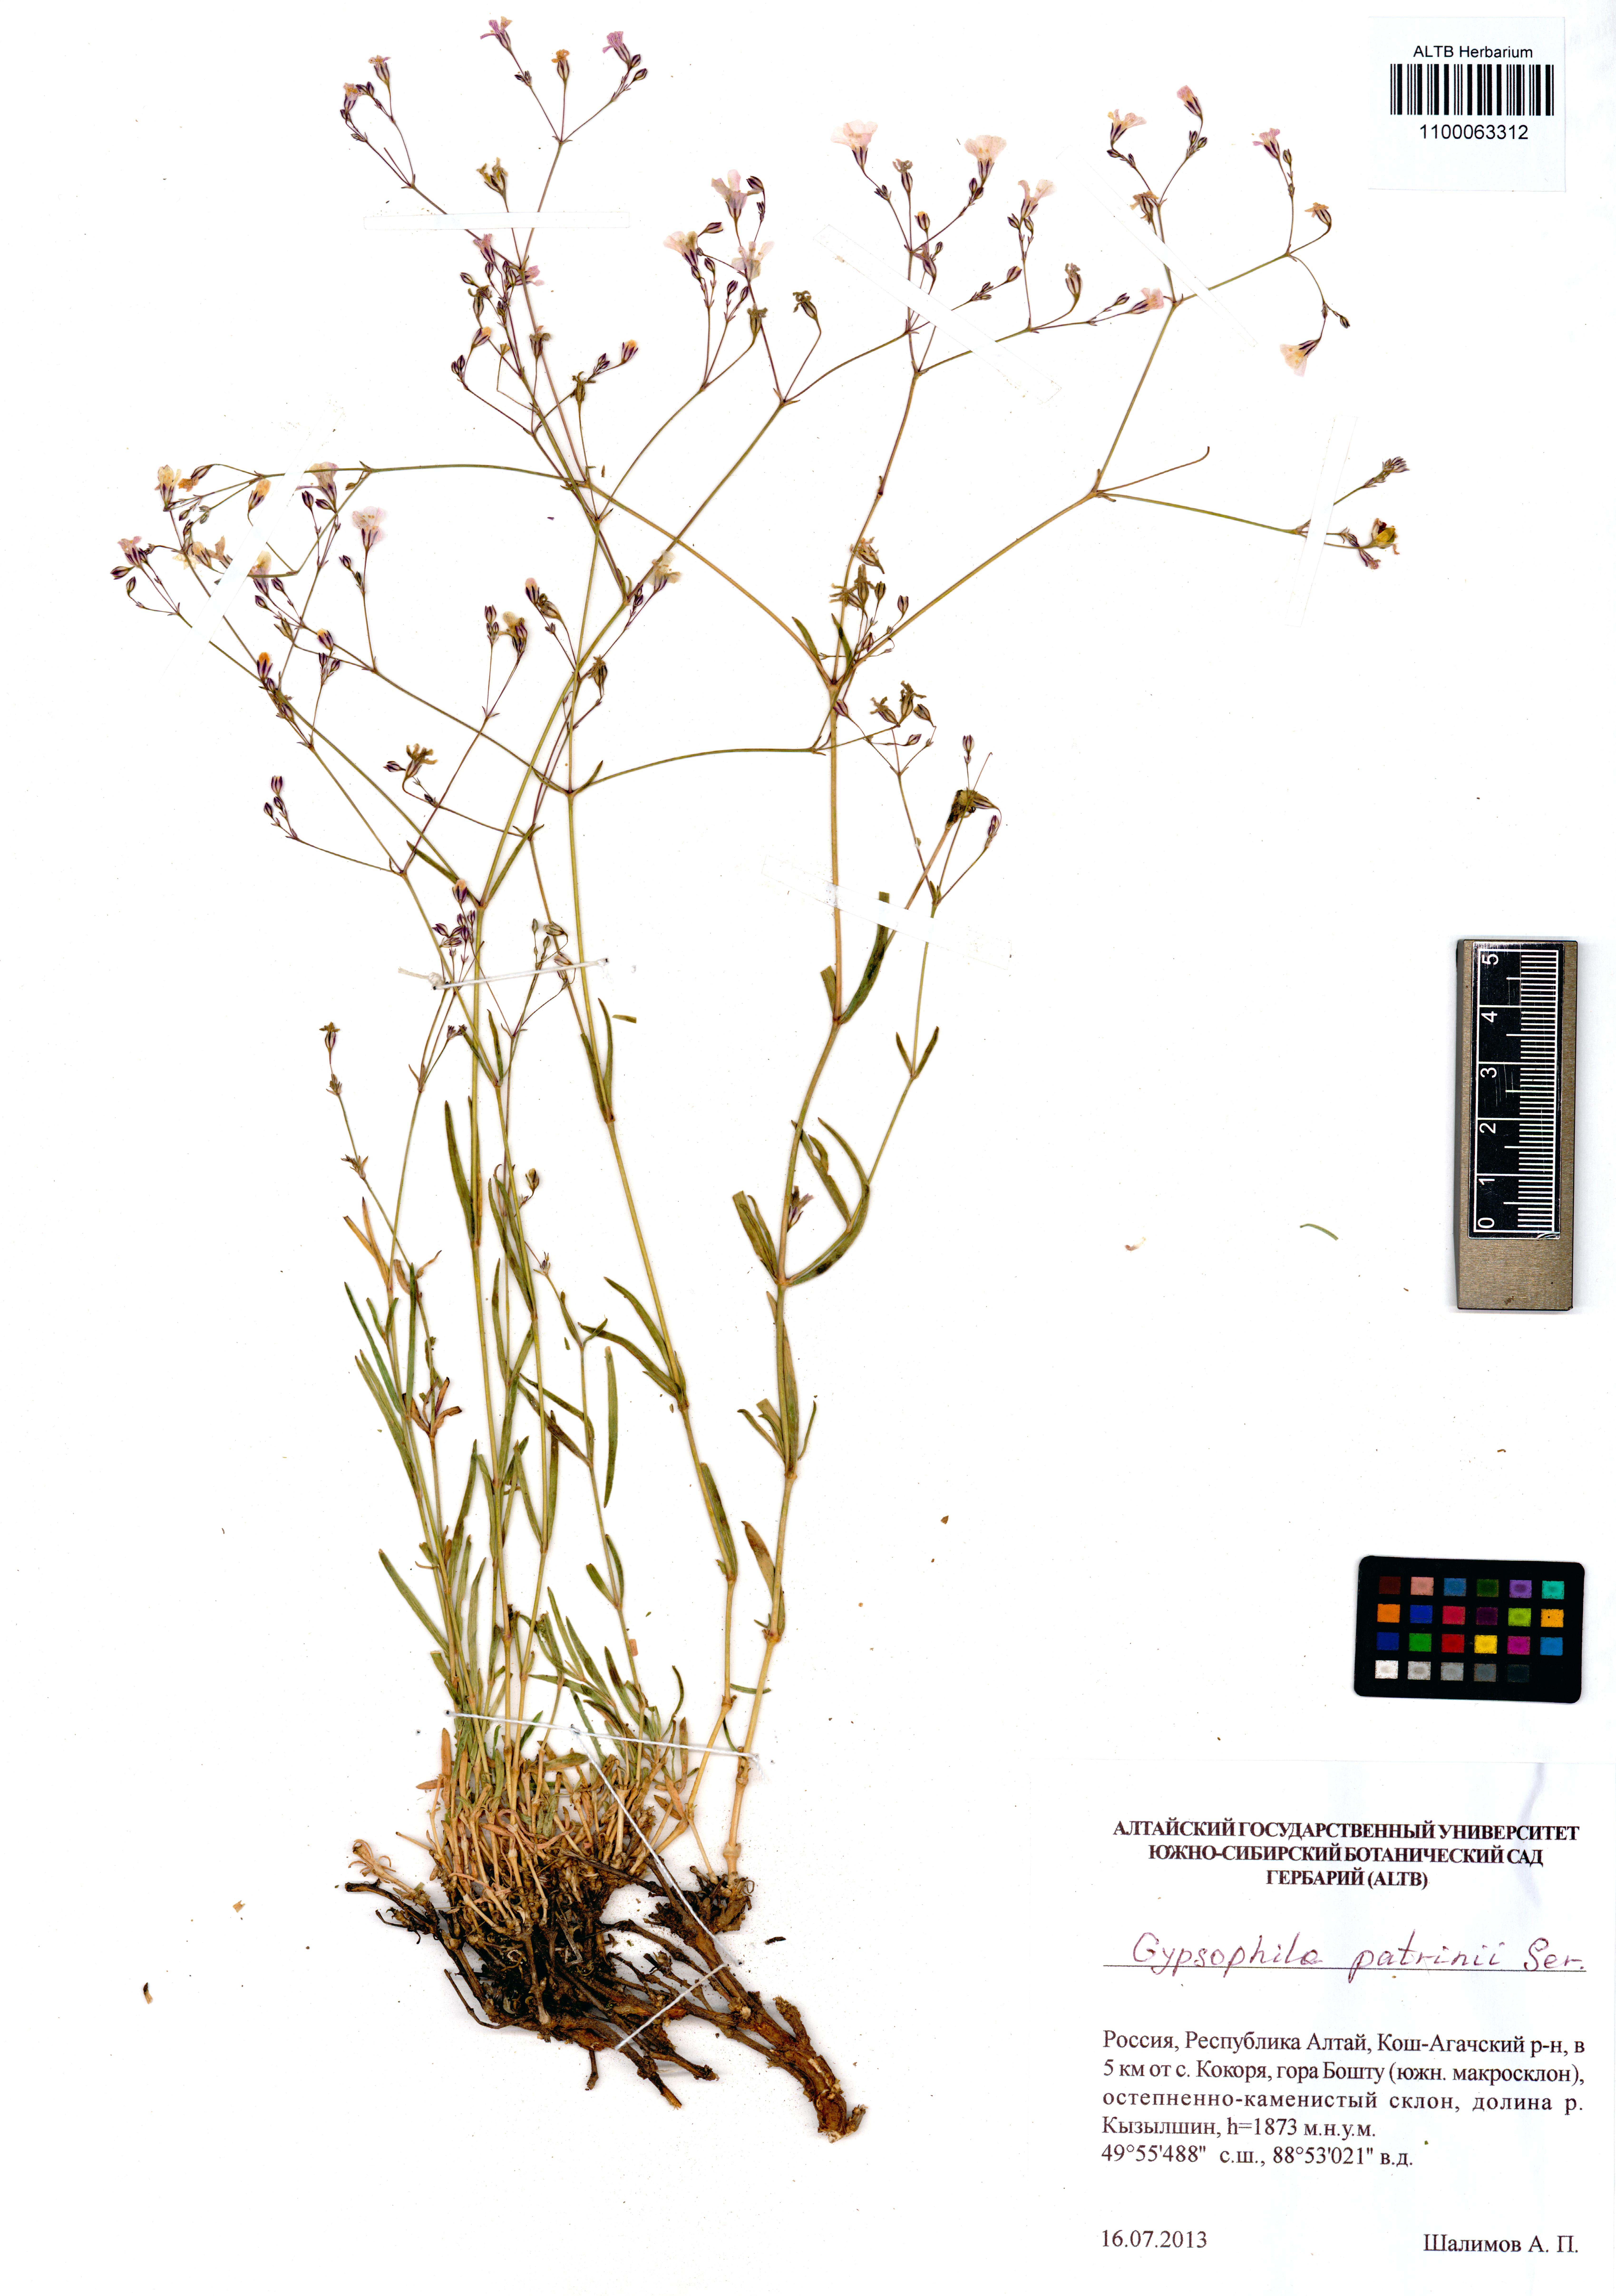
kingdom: Plantae
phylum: Tracheophyta
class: Magnoliopsida
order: Caryophyllales
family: Caryophyllaceae
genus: Gypsophila
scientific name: Gypsophila patrinii
